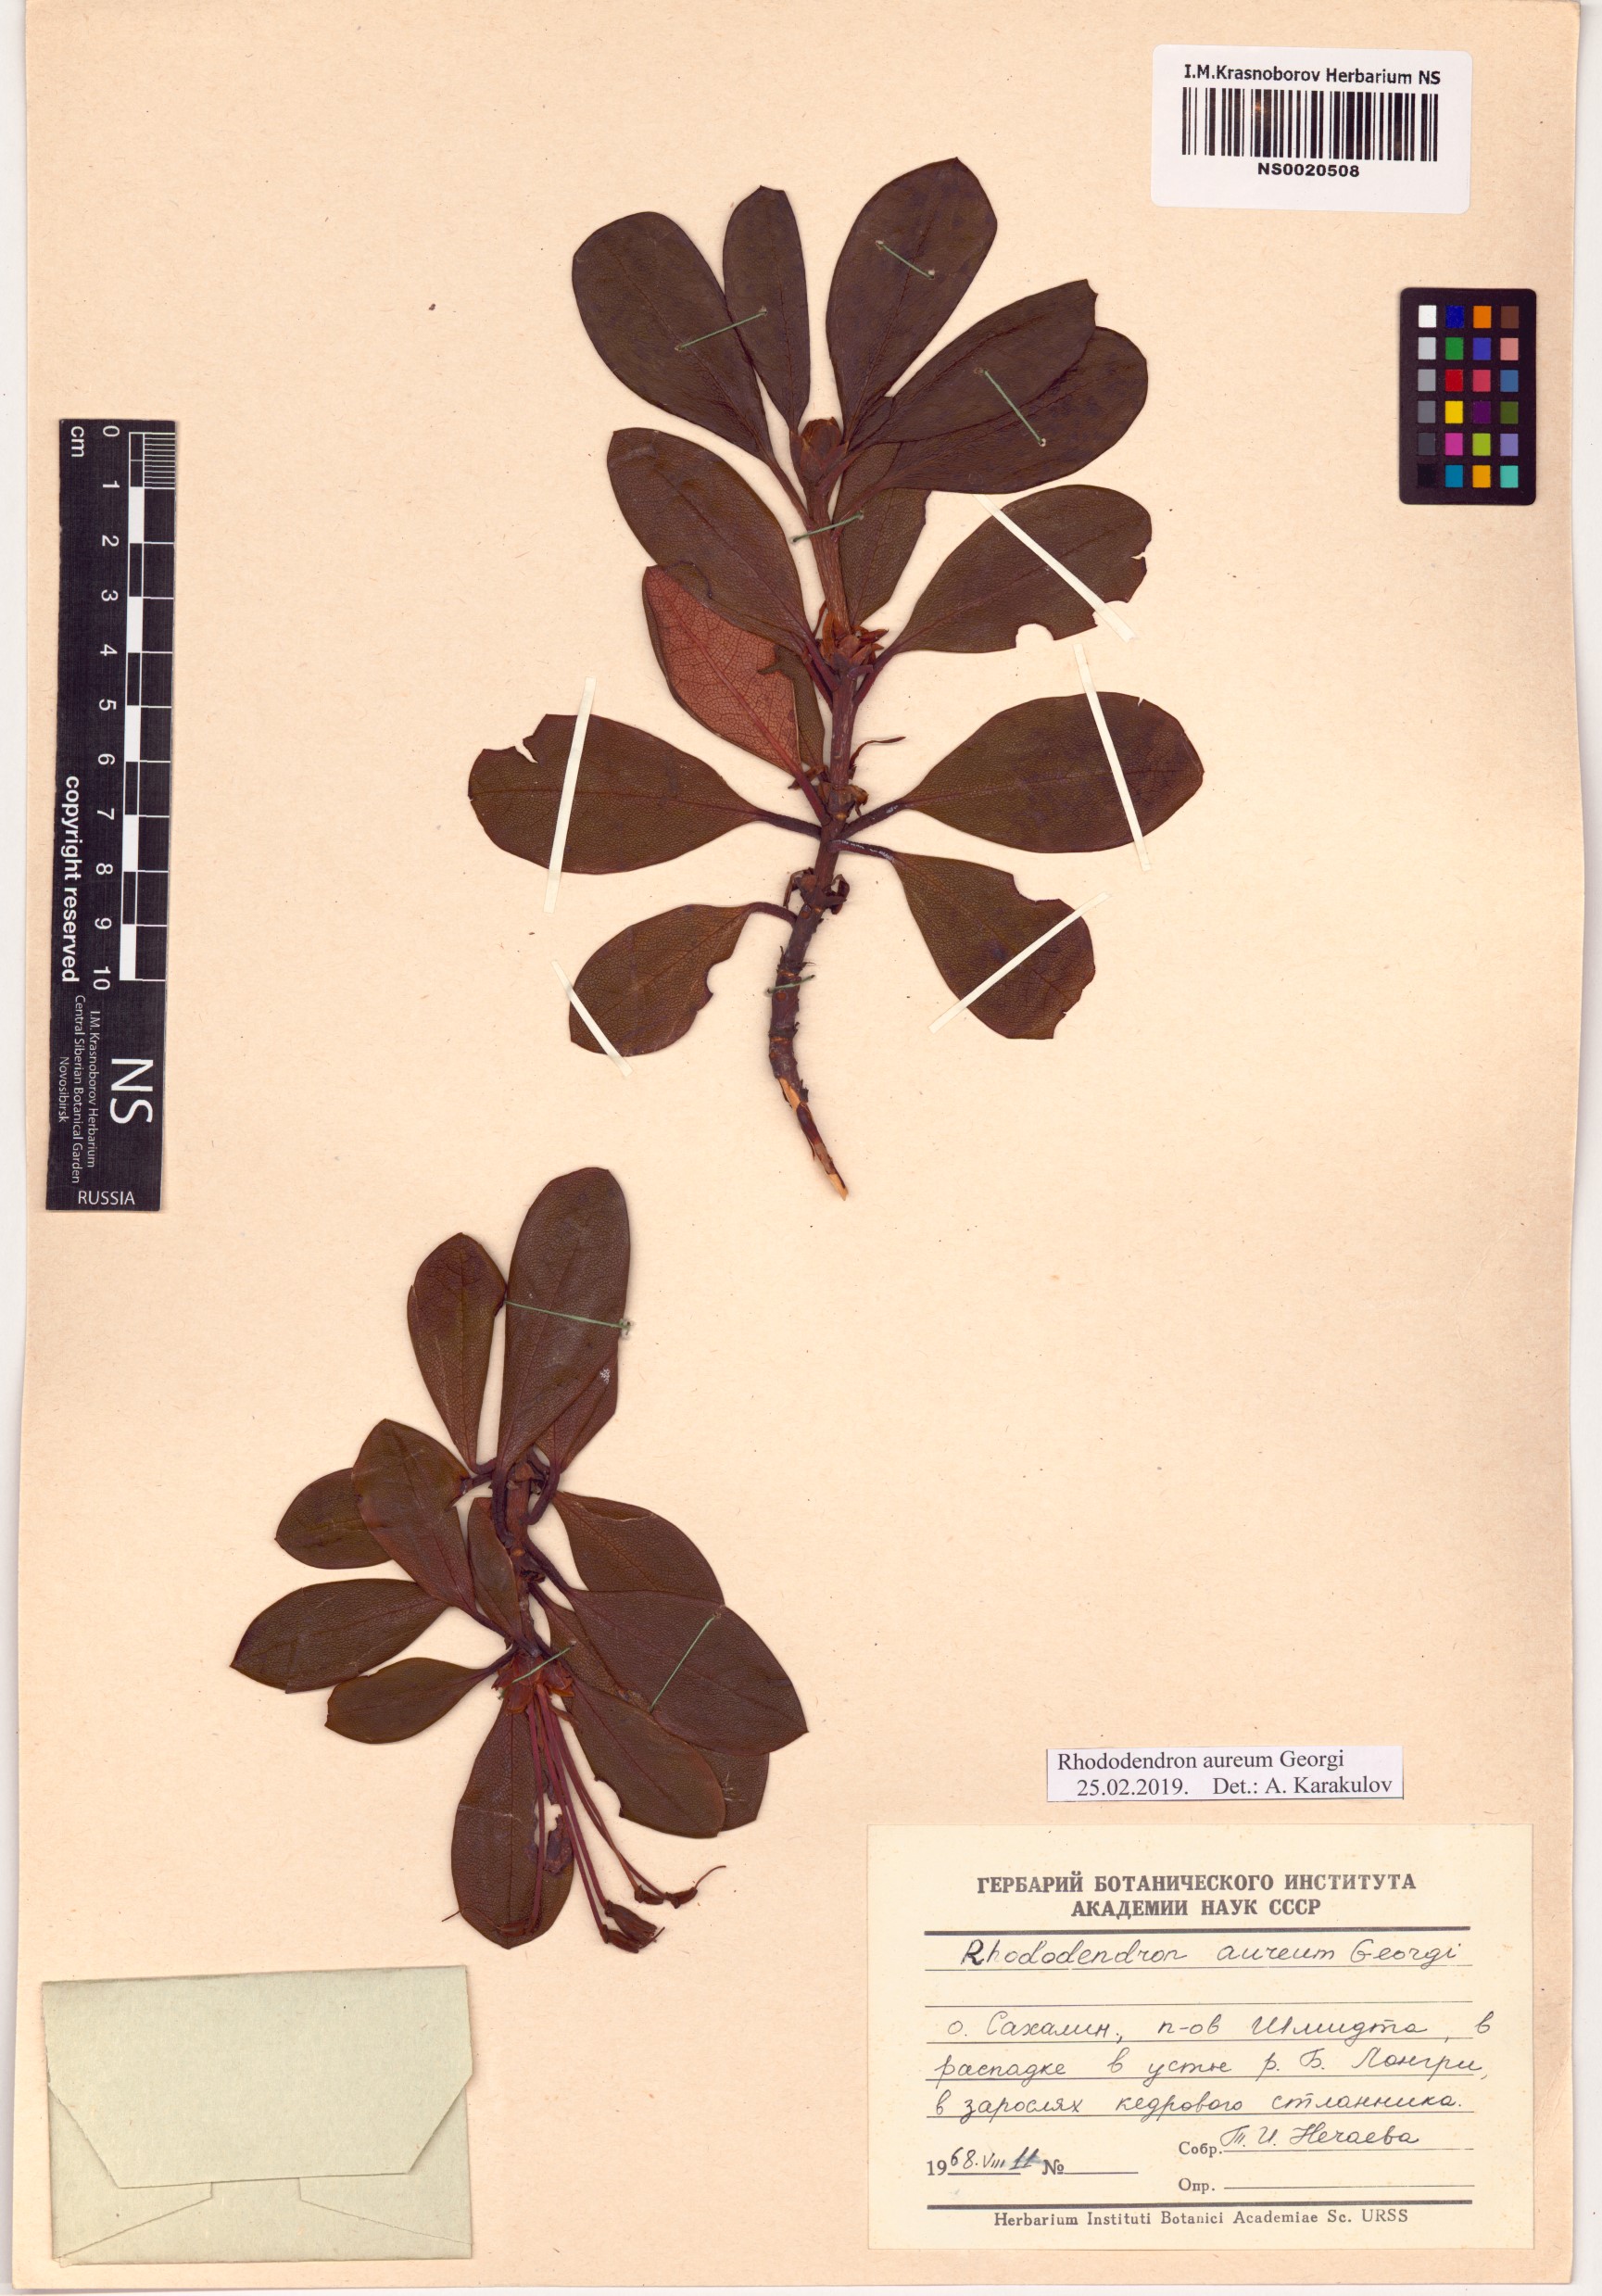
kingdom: Plantae
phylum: Tracheophyta
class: Magnoliopsida
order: Ericales
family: Ericaceae
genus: Rhododendron
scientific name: Rhododendron aureum
